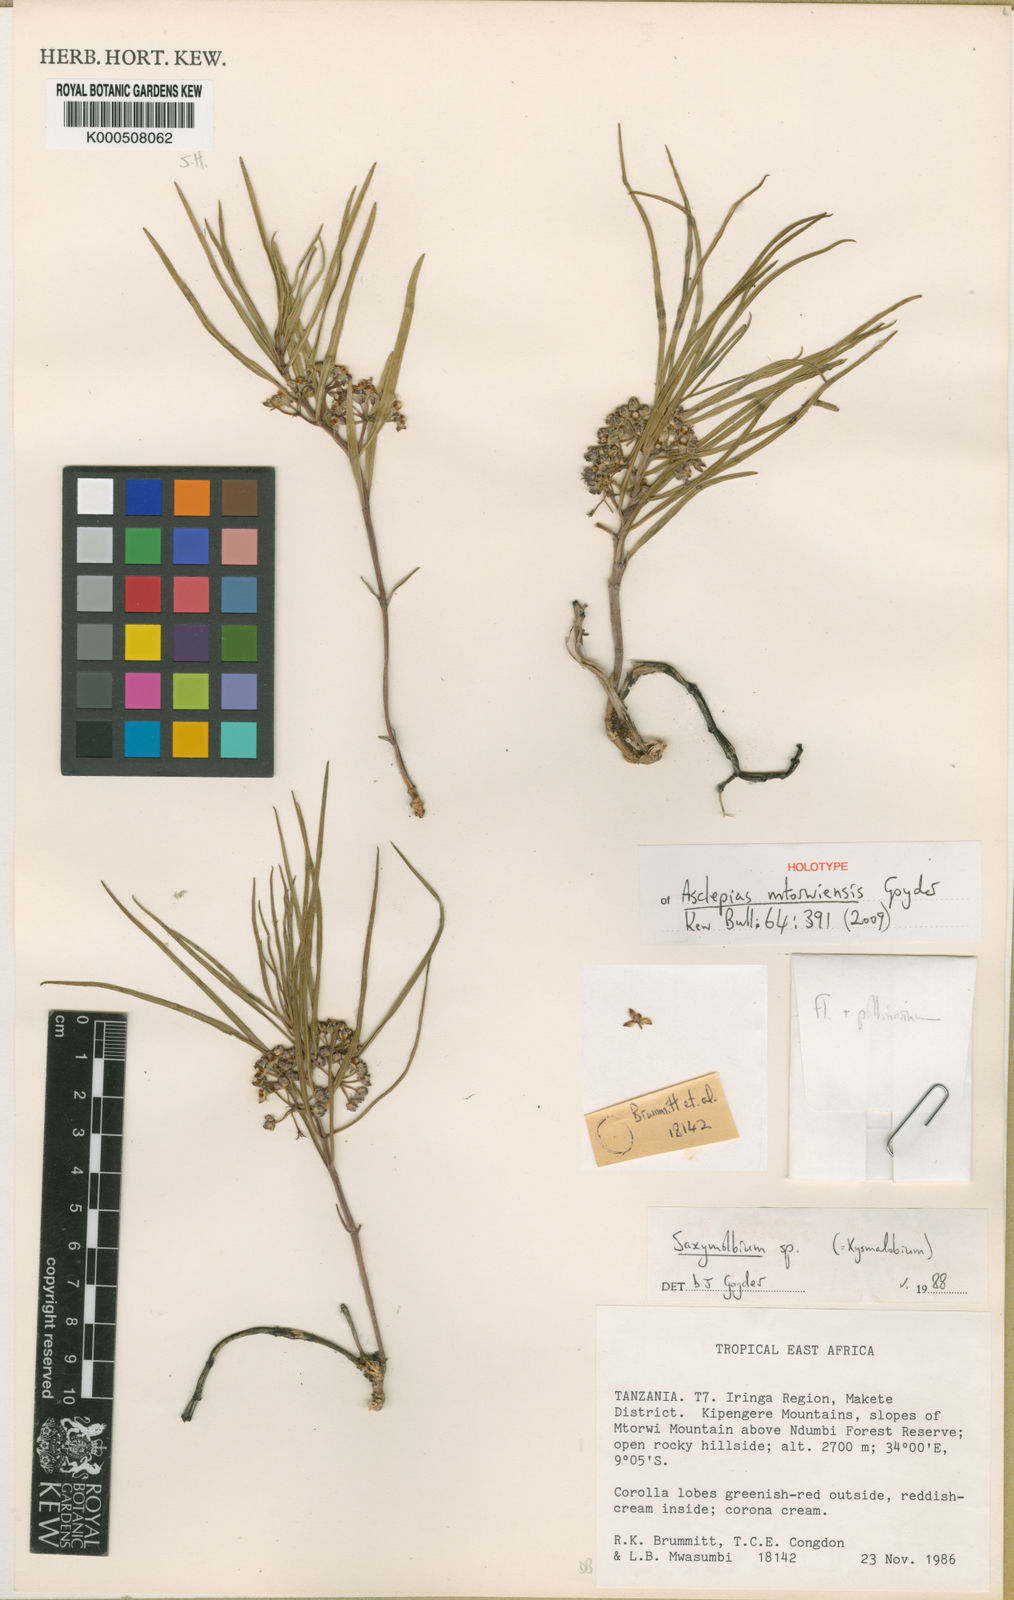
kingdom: Plantae
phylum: Tracheophyta
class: Magnoliopsida
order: Gentianales
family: Apocynaceae
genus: Asclepias
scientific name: Asclepias mtorwiensis
